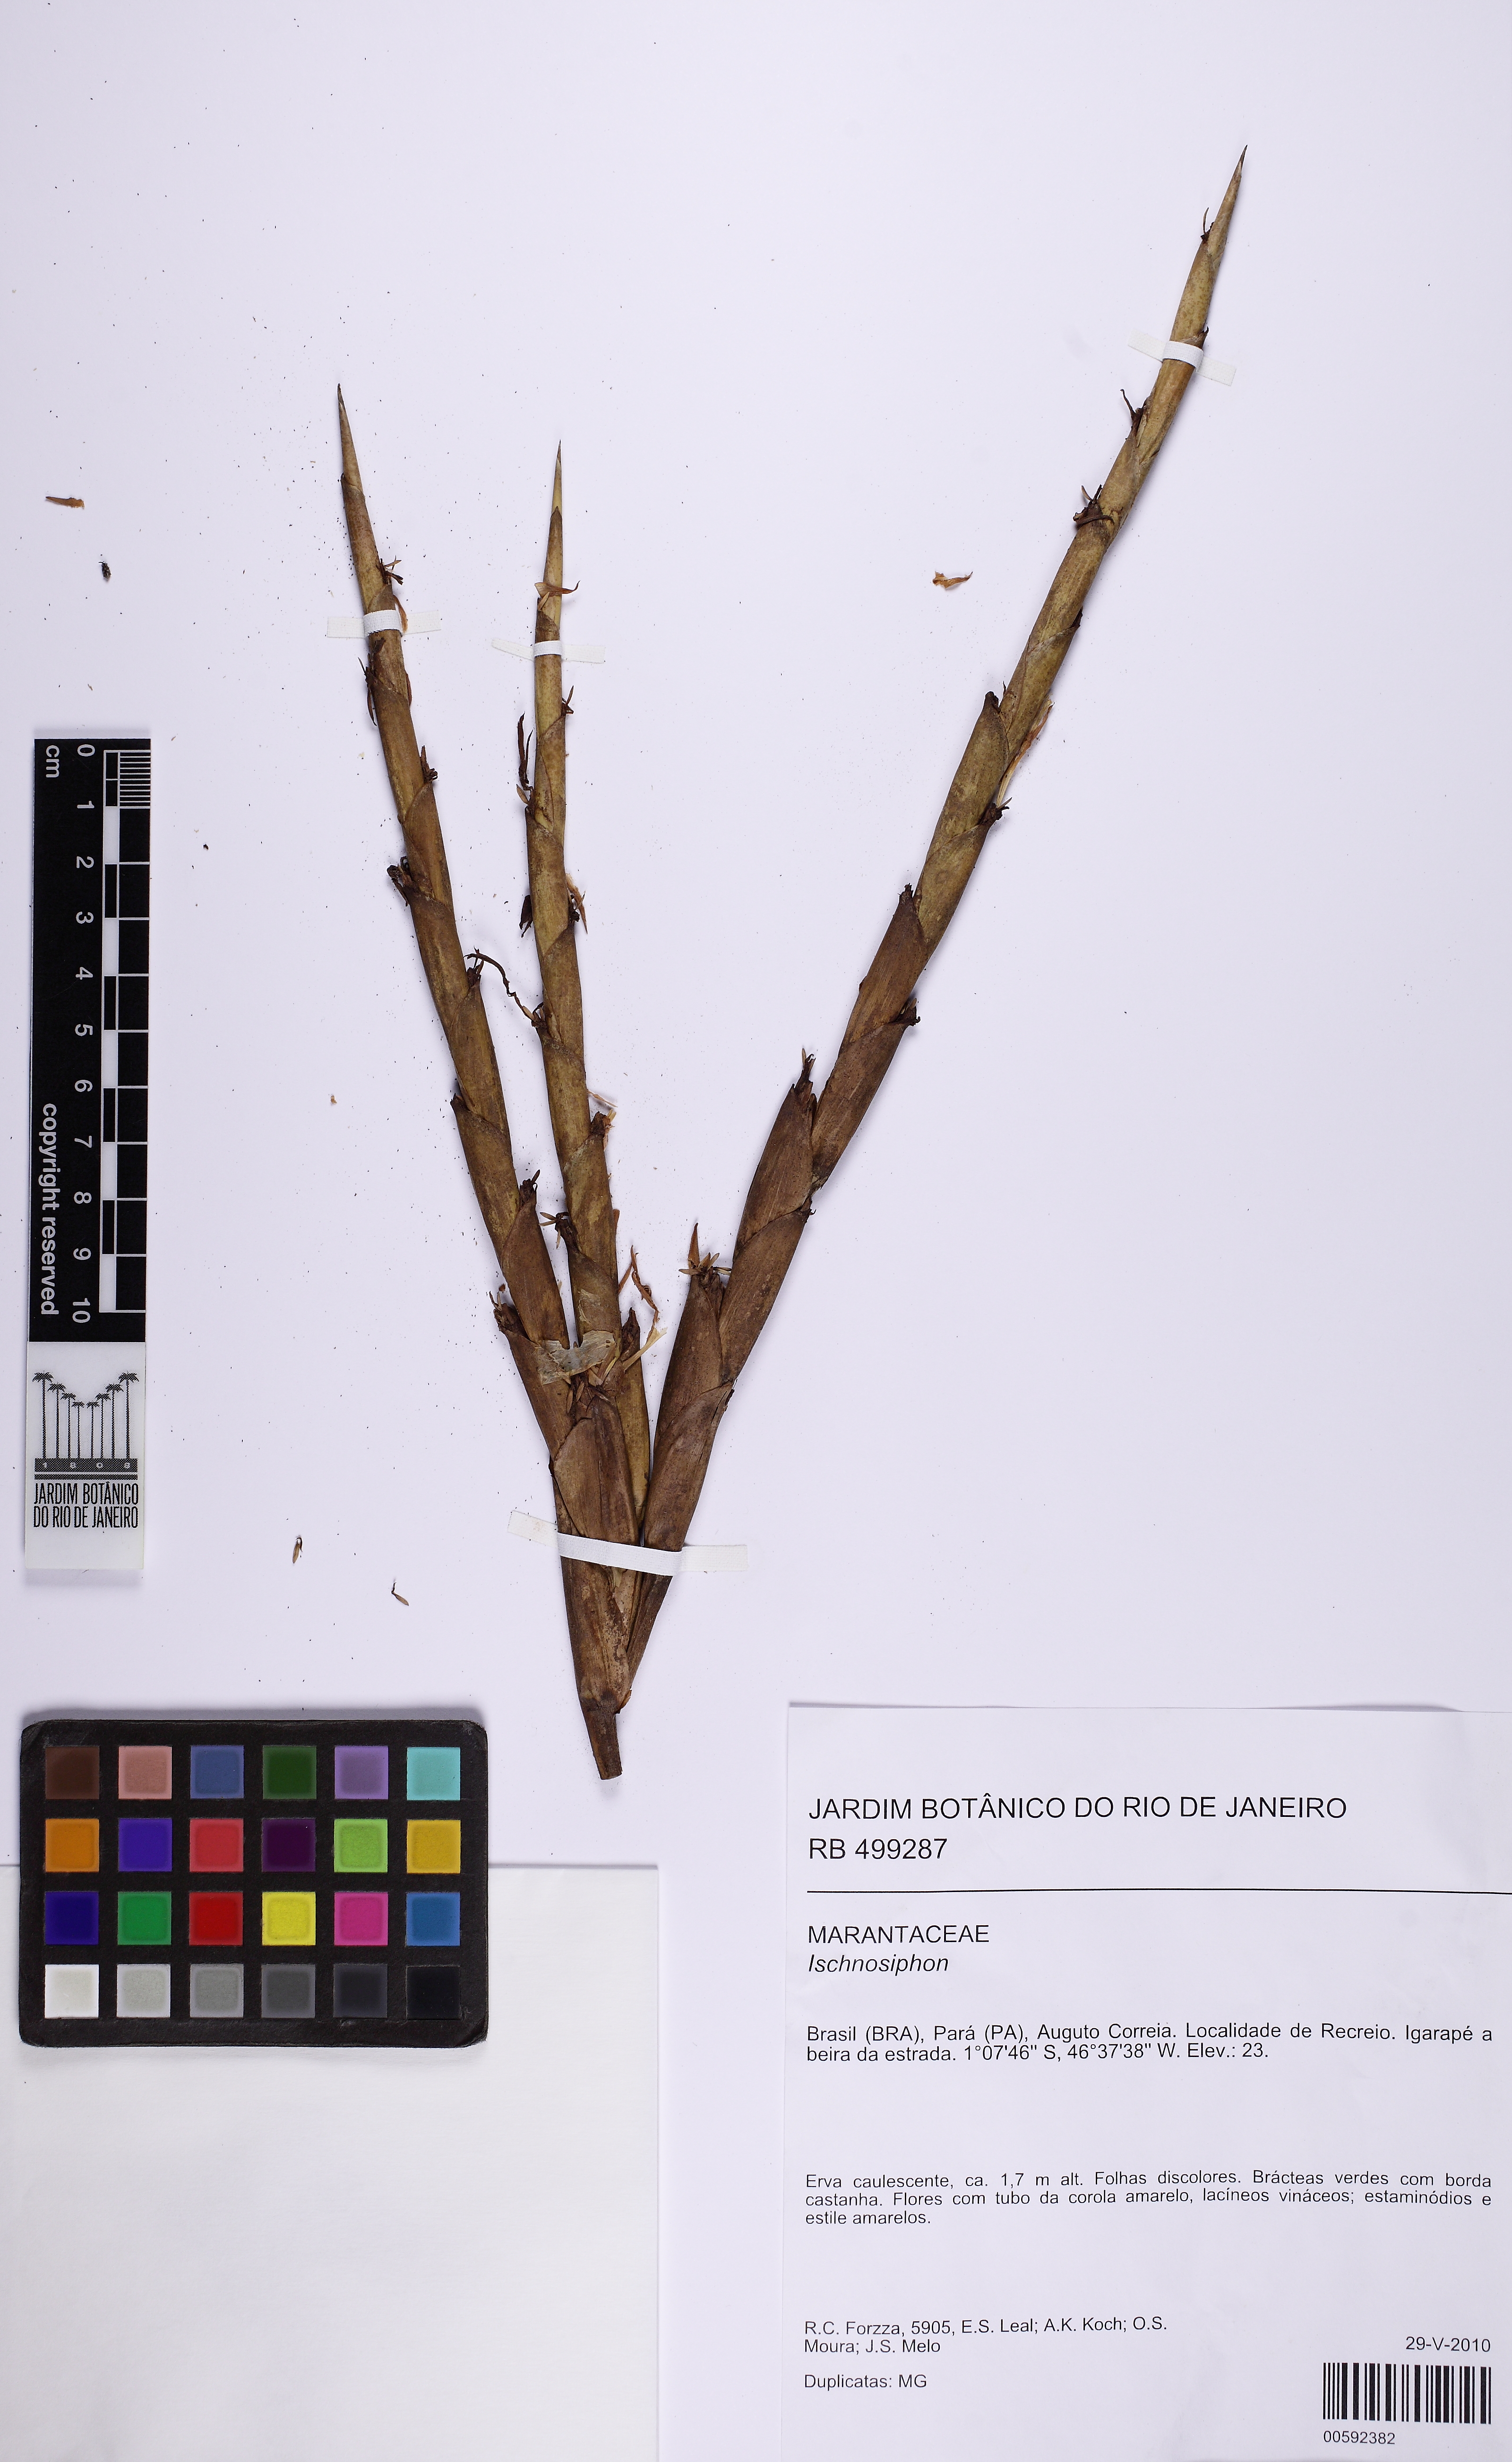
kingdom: Plantae
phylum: Tracheophyta
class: Liliopsida
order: Zingiberales
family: Marantaceae
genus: Ischnosiphon
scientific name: Ischnosiphon obliquus
